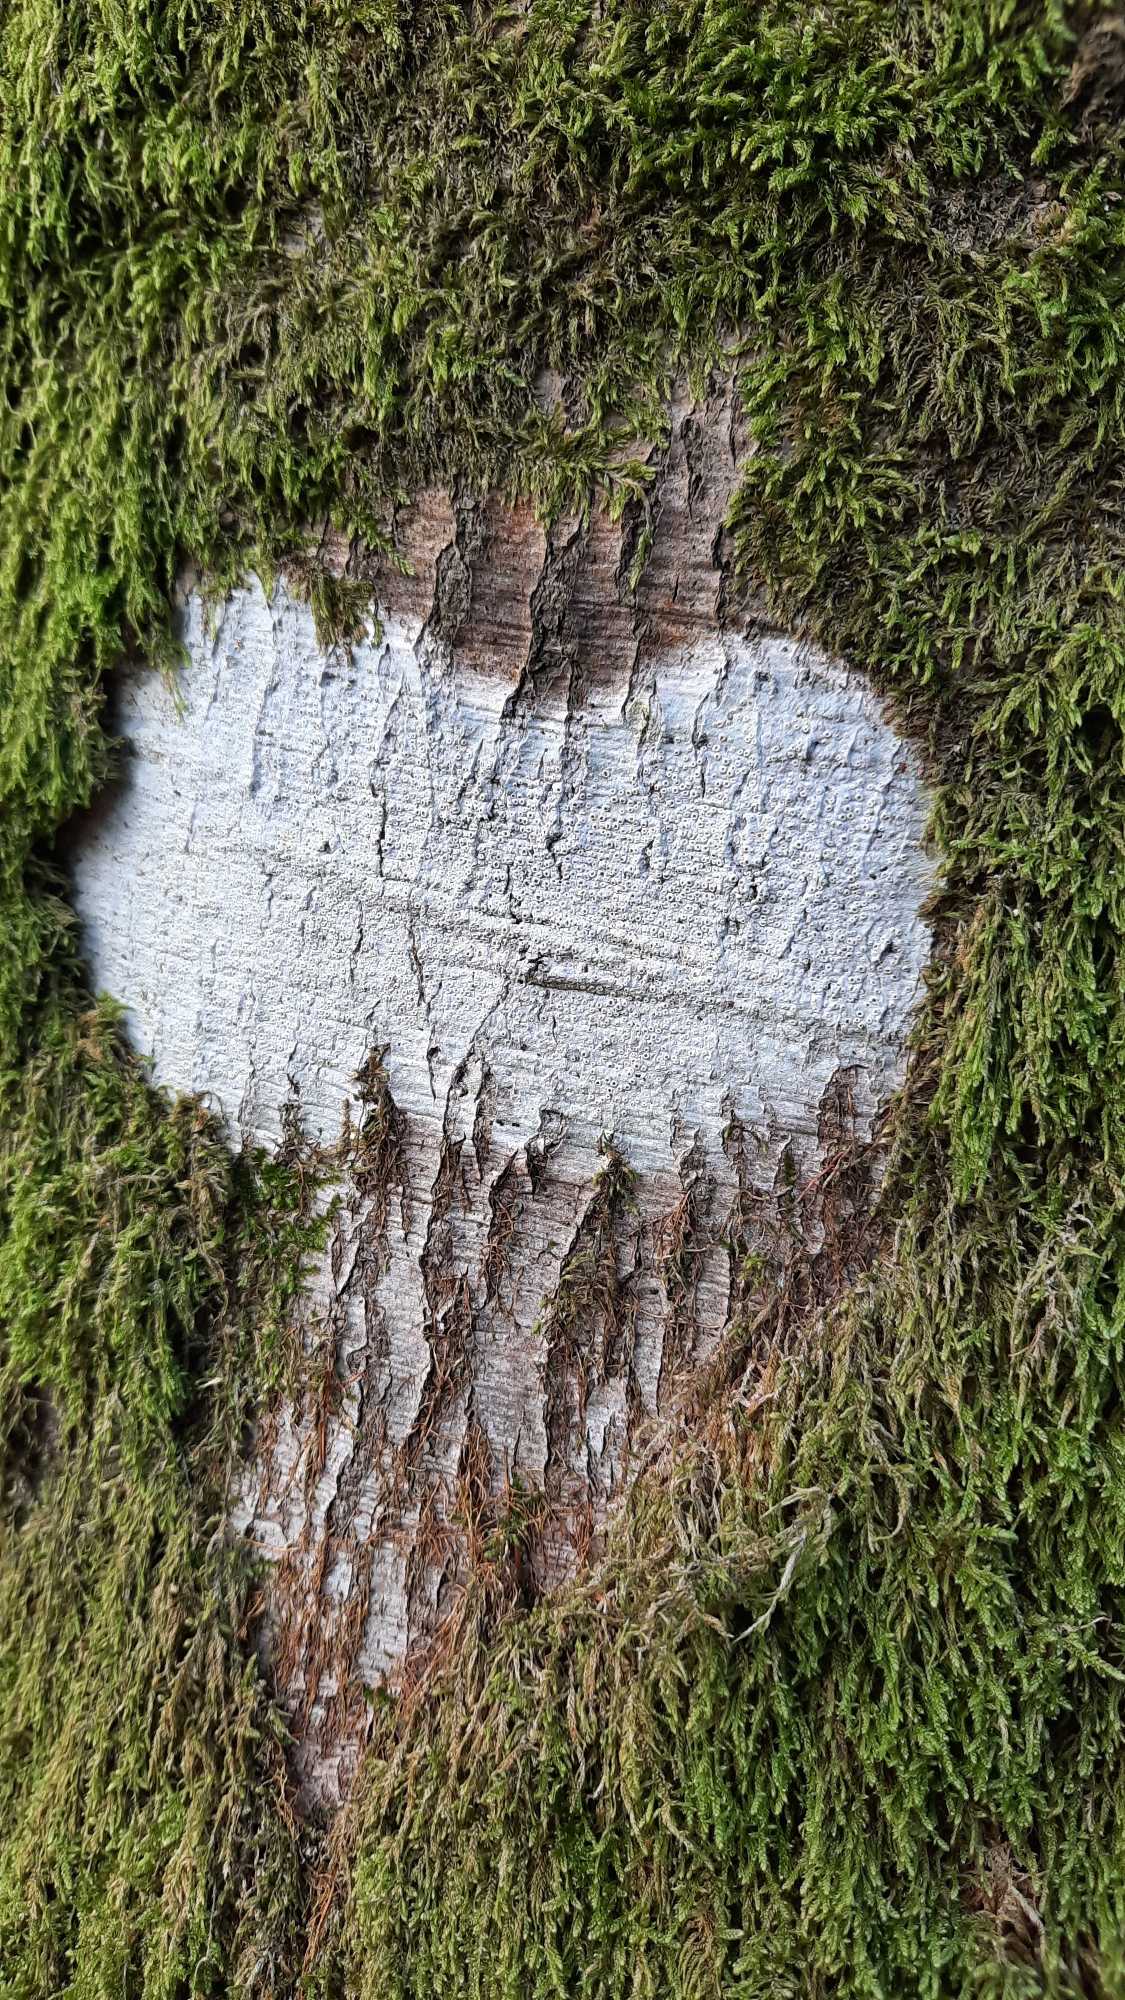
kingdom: Fungi
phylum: Ascomycota
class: Lecanoromycetes
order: Ostropales
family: Graphidaceae
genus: Thelotrema
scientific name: Thelotrema lepadinum
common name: Almindelig slørkantlav
